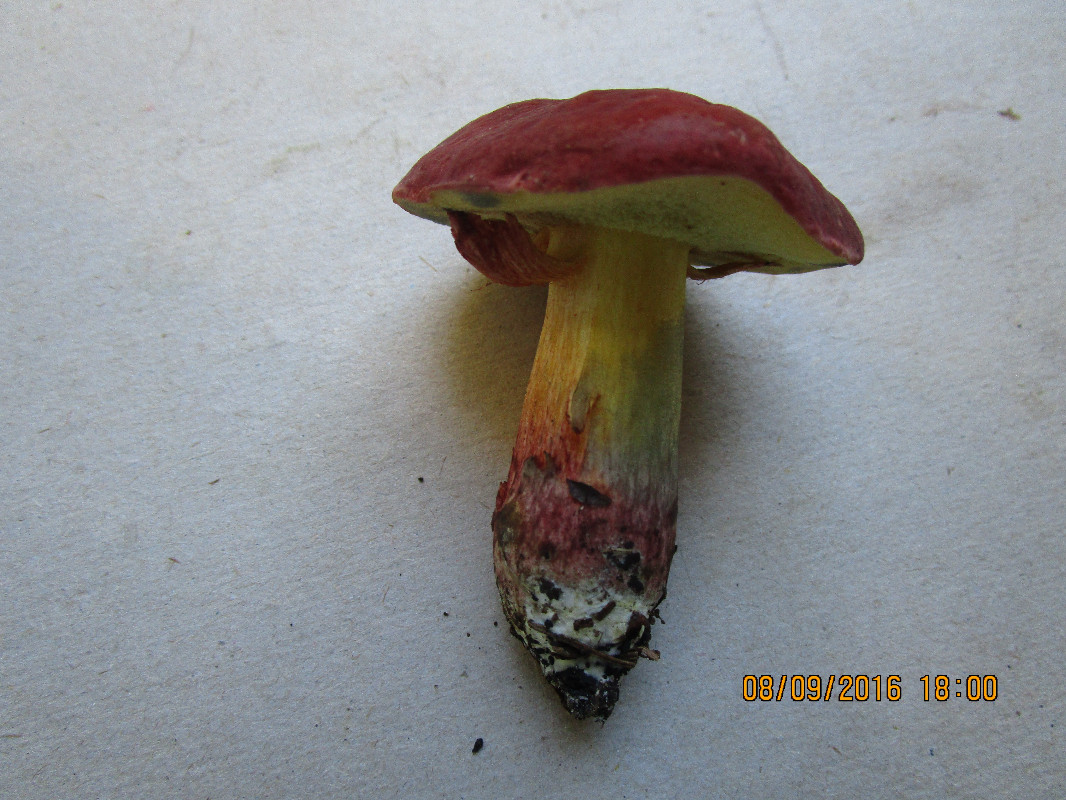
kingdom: Fungi
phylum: Basidiomycota
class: Agaricomycetes
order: Boletales
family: Boletaceae
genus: Hortiboletus
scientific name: Hortiboletus rubellus
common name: blodrød rørhat
